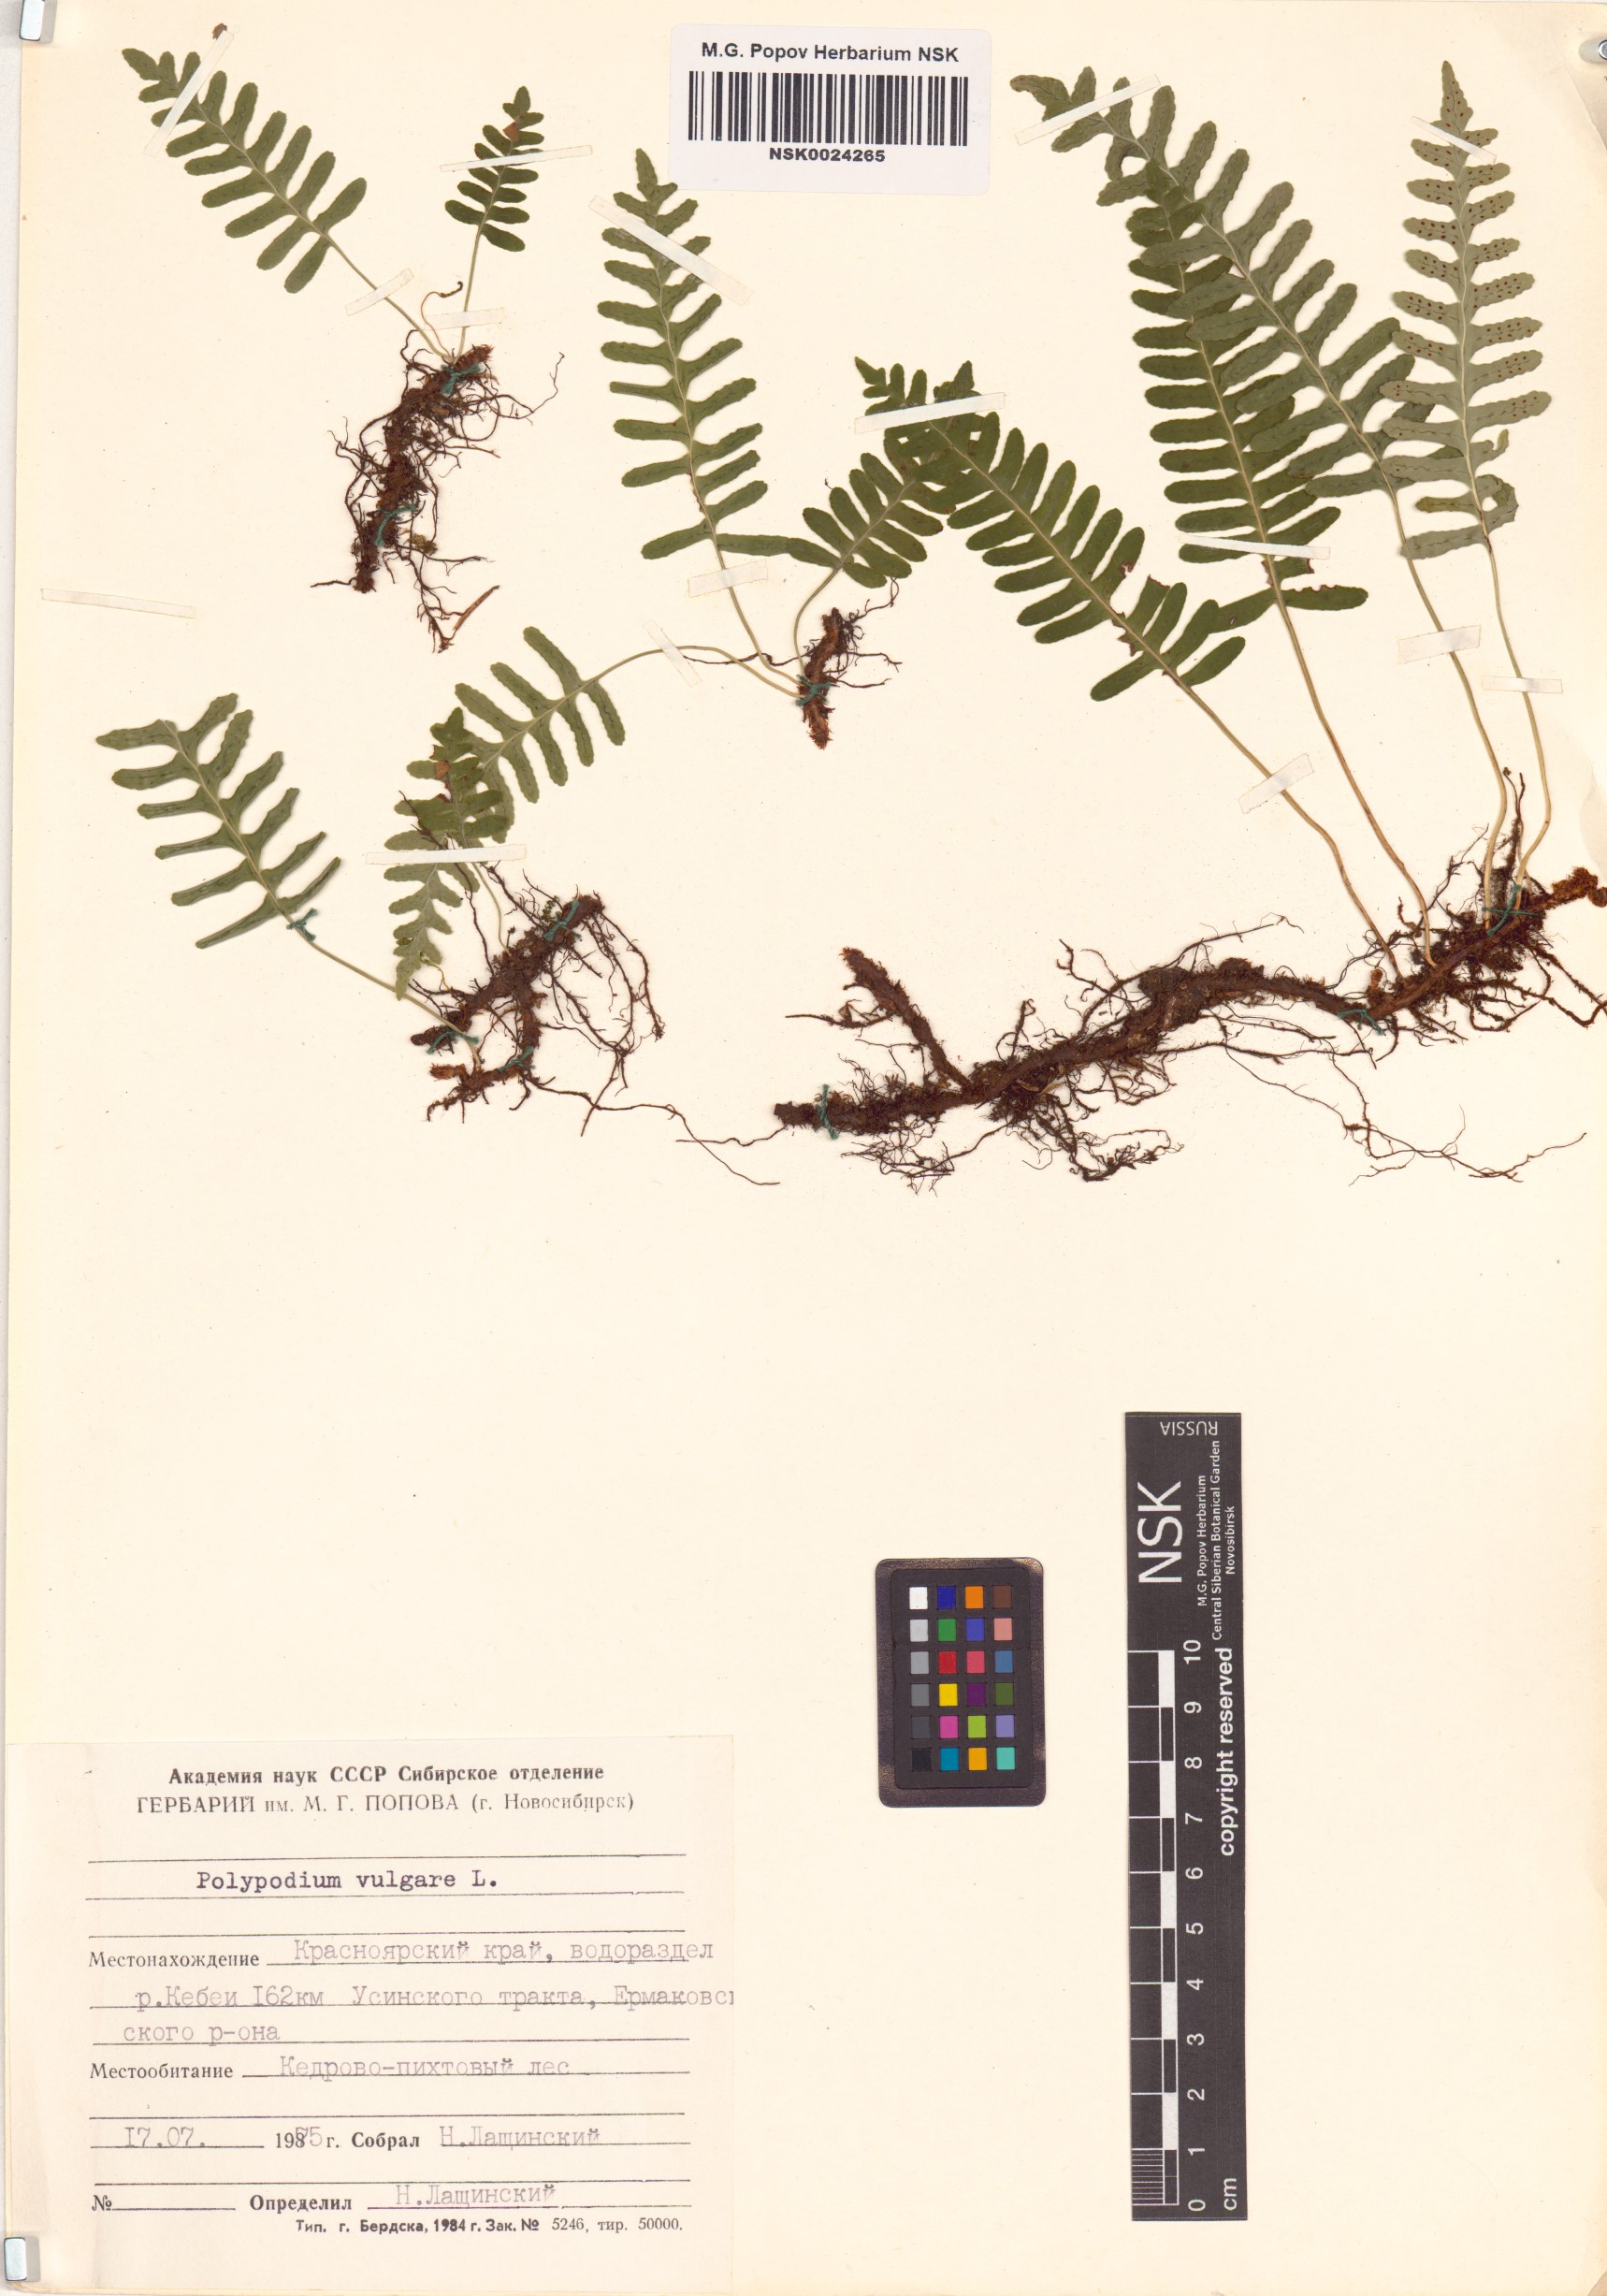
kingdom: Plantae
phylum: Tracheophyta
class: Polypodiopsida
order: Polypodiales
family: Polypodiaceae
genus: Polypodium
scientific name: Polypodium vulgare
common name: Common polypody
